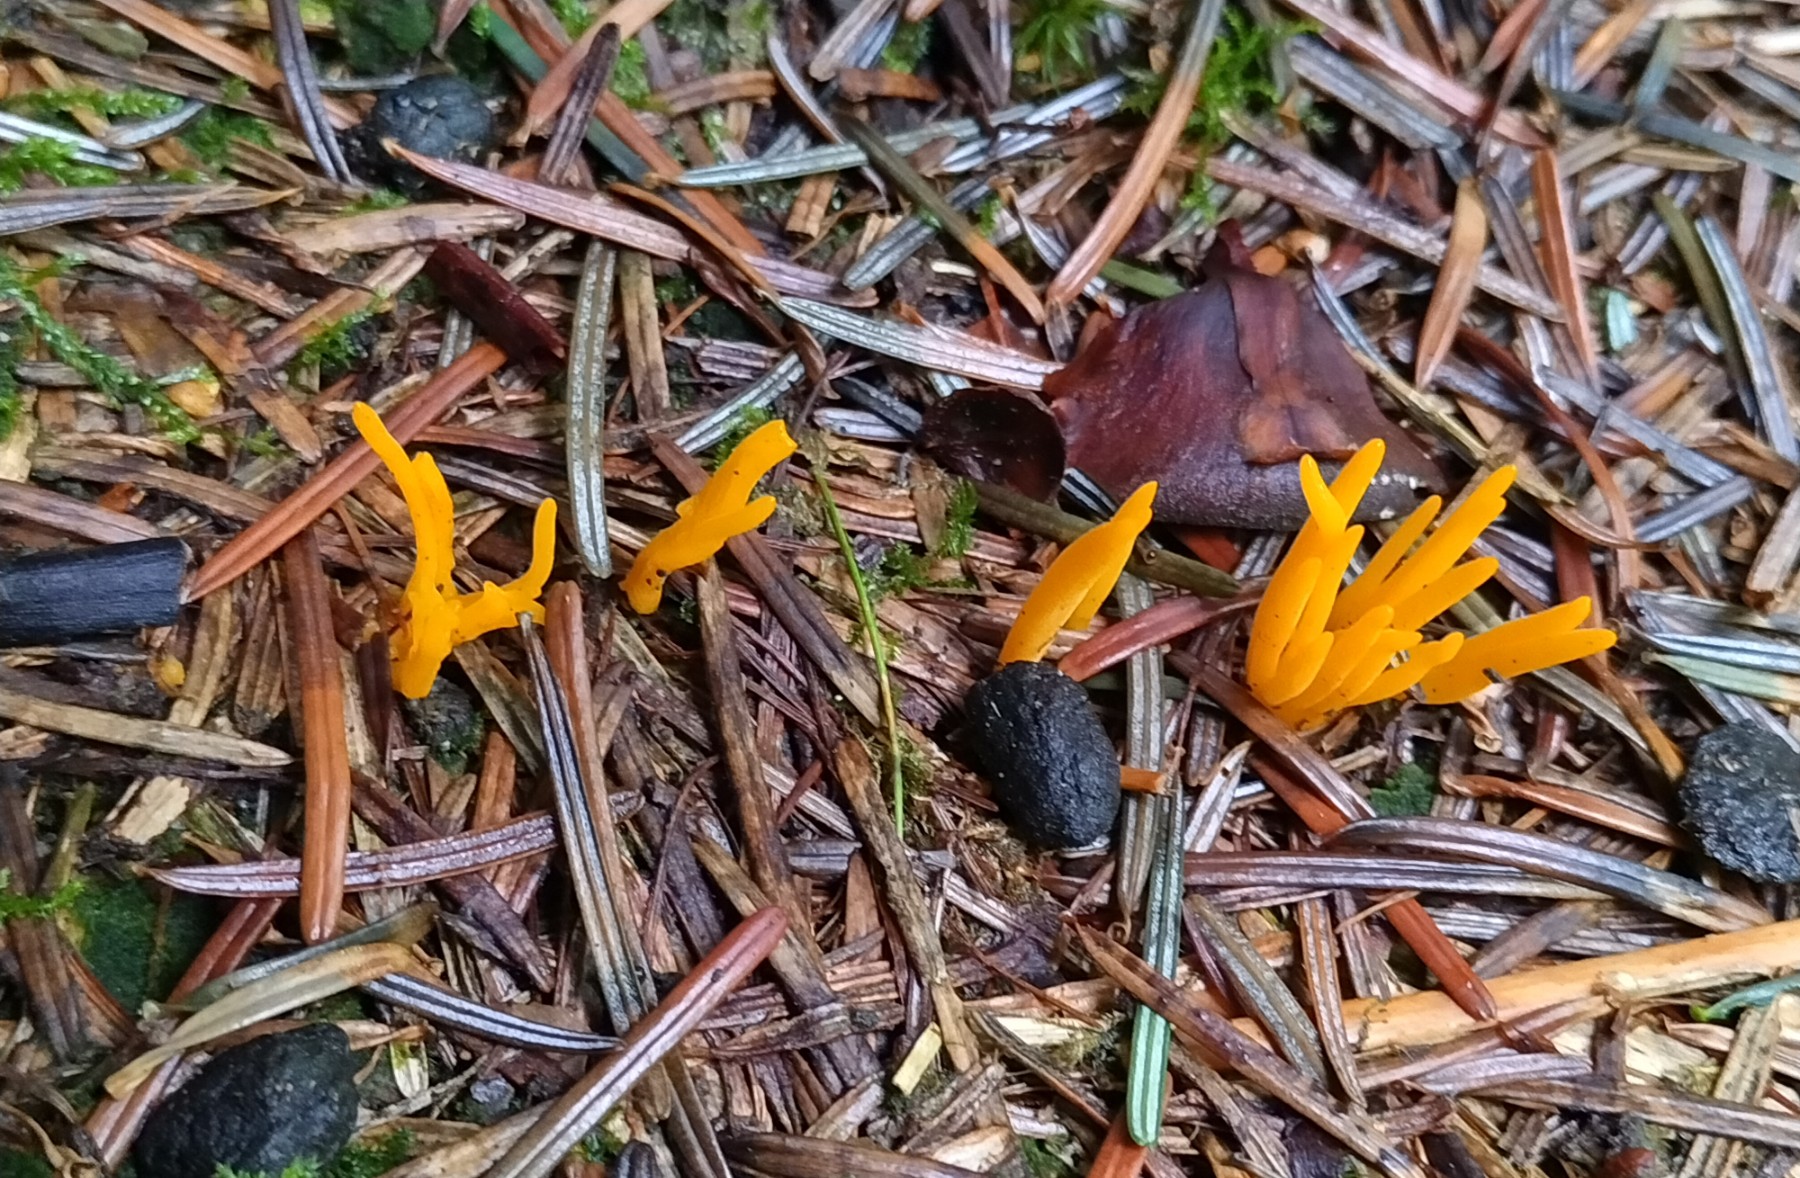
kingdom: Fungi
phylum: Basidiomycota
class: Dacrymycetes
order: Dacrymycetales
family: Dacrymycetaceae
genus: Calocera
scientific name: Calocera cornea
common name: liden guldgaffel
